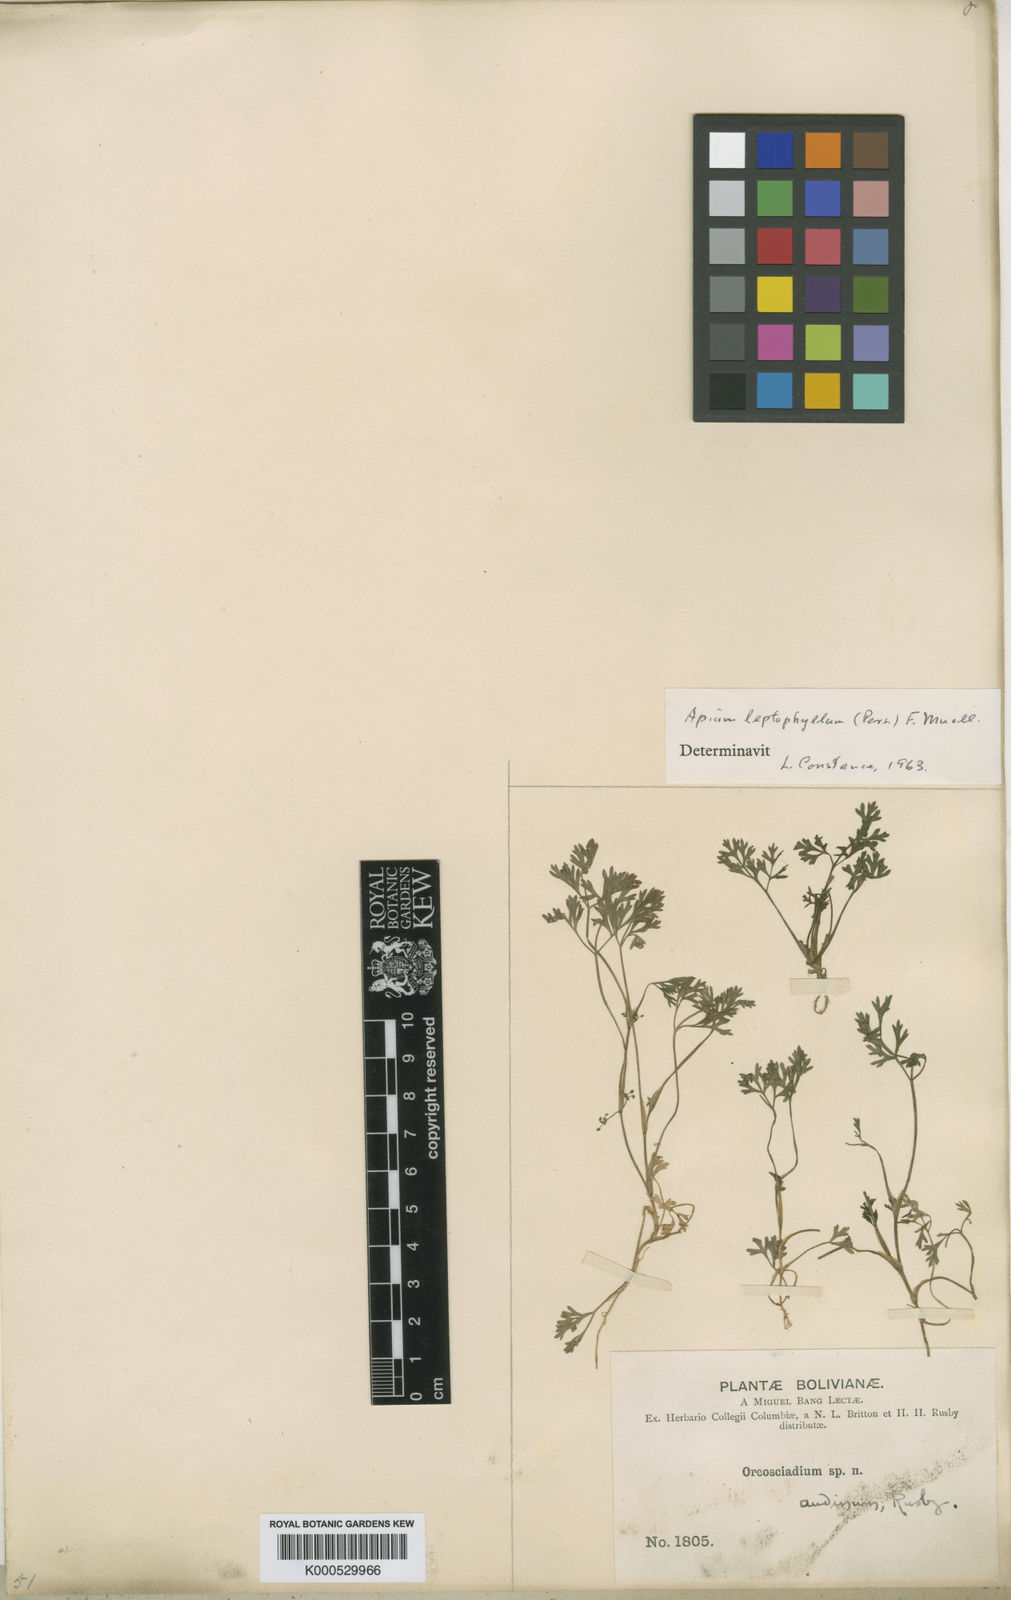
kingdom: Plantae
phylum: Tracheophyta
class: Magnoliopsida
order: Apiales
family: Apiaceae
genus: Apium
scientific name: Apium
